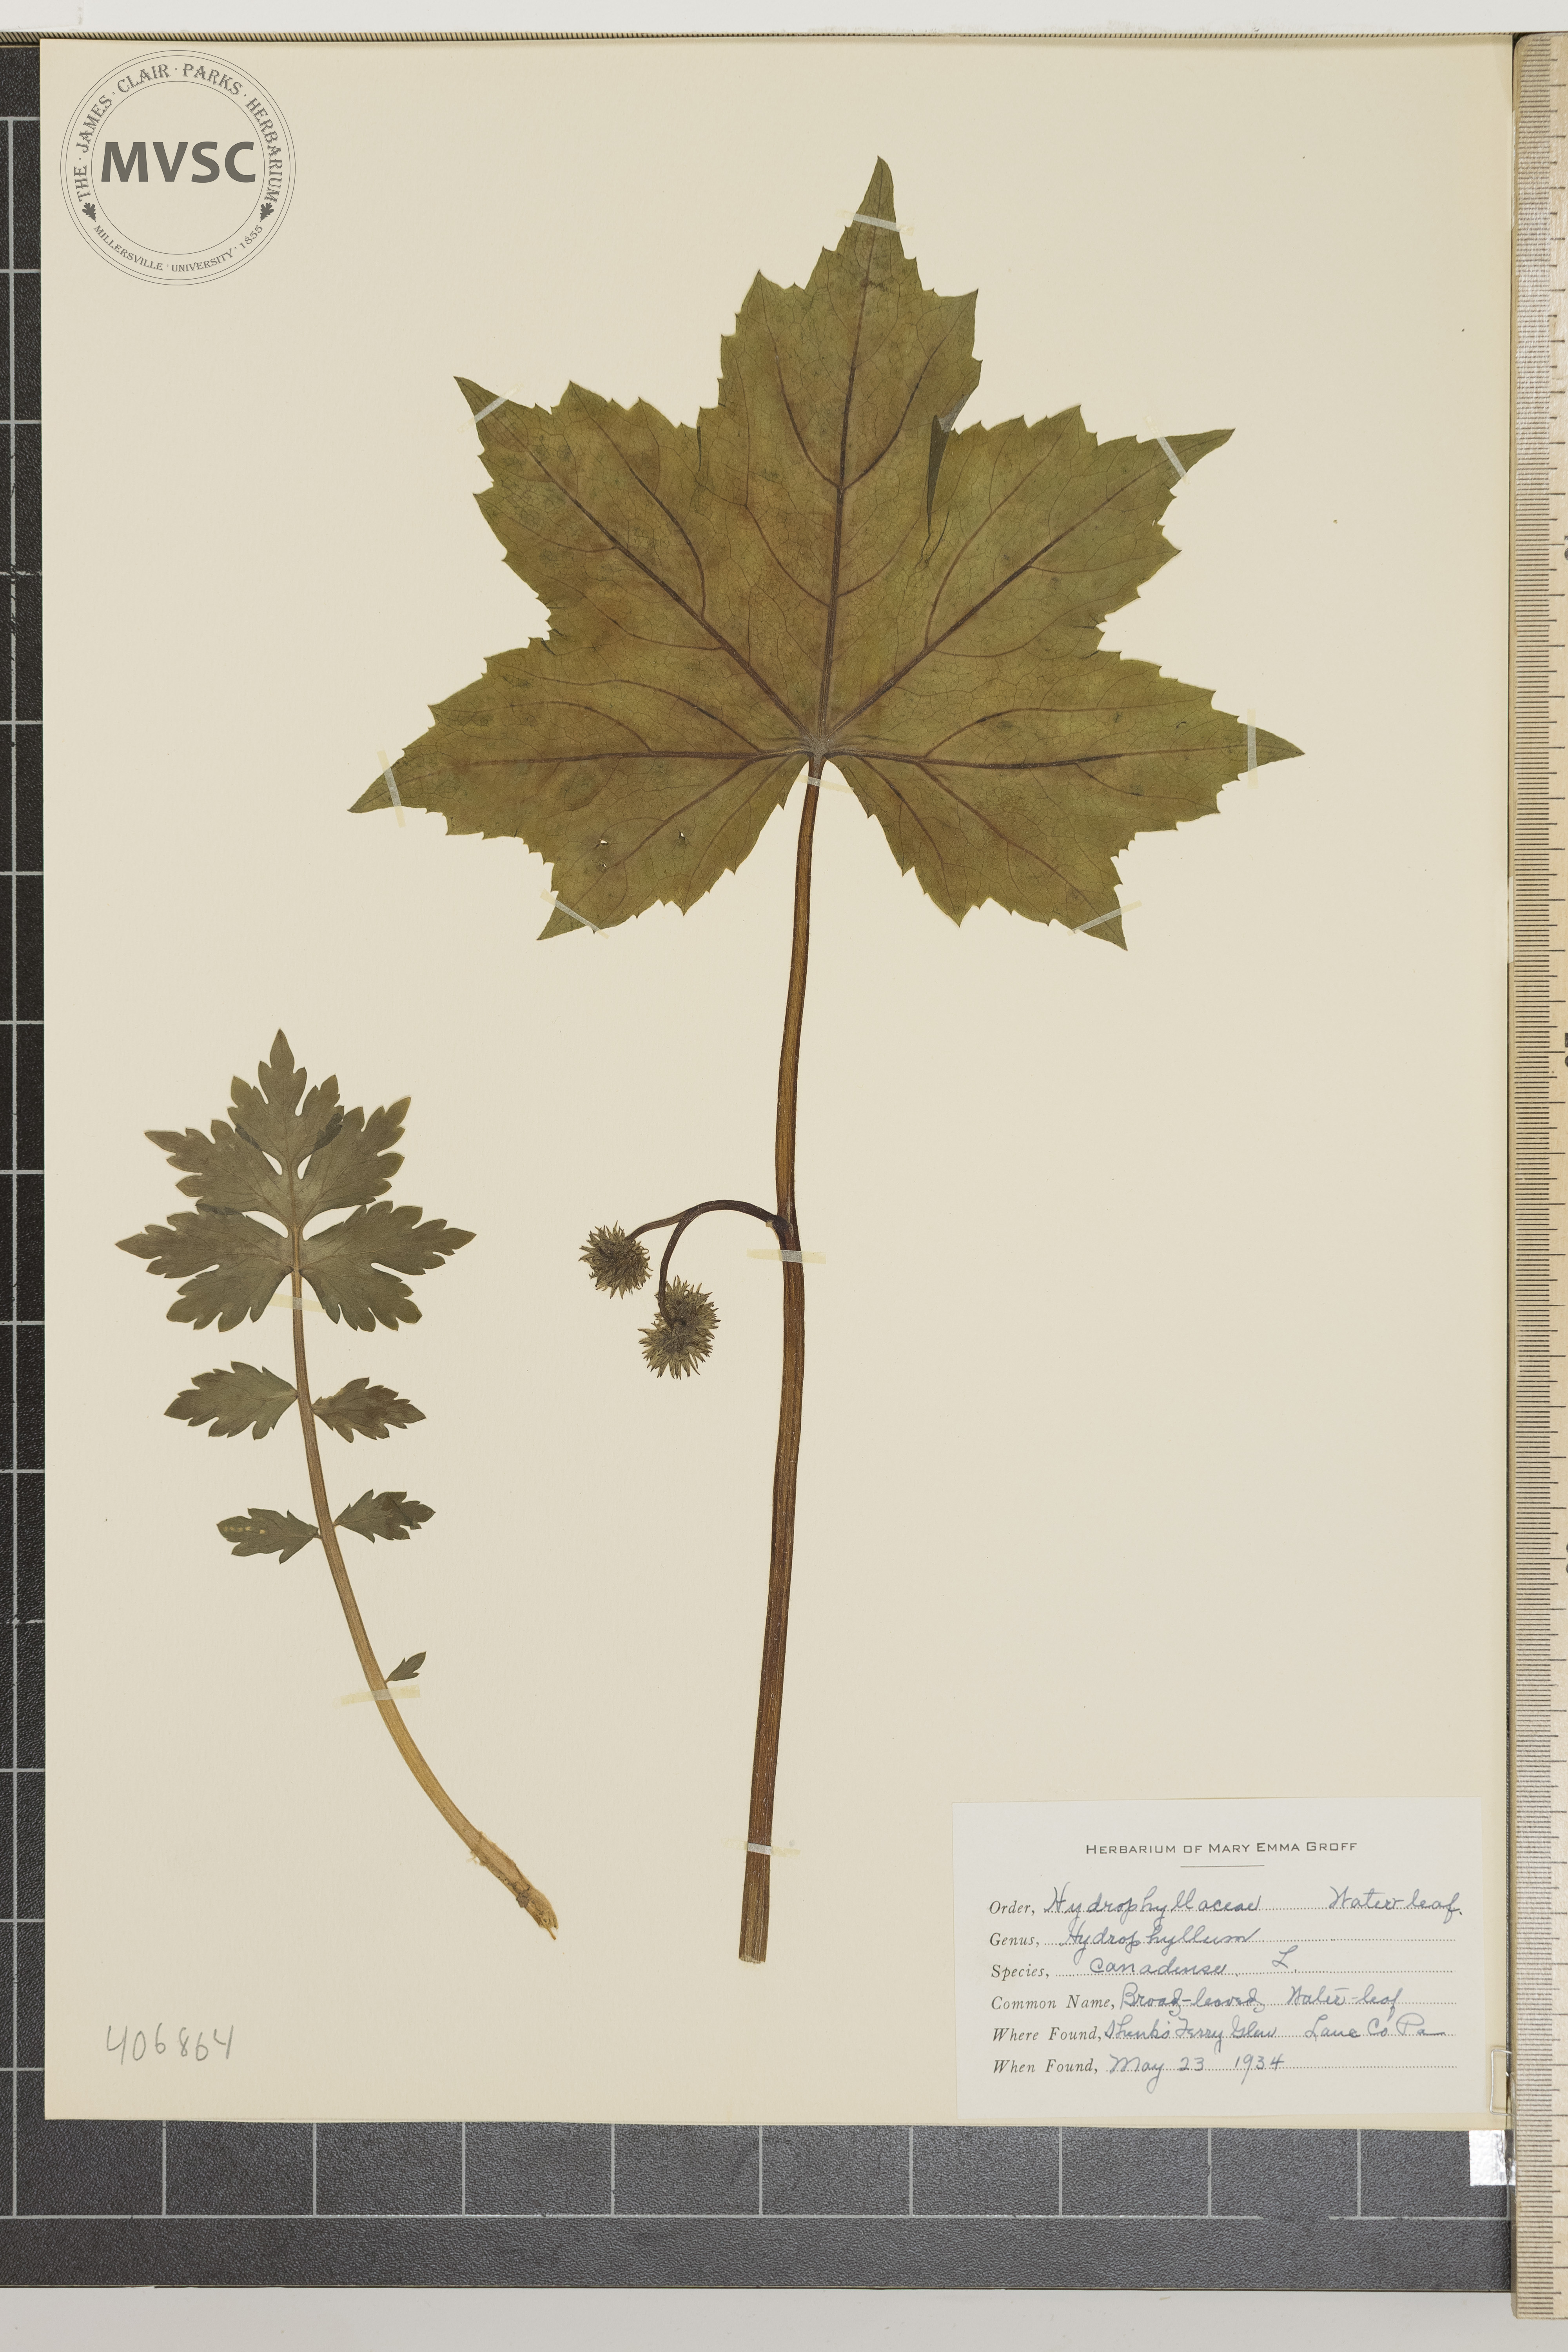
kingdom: Plantae
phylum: Tracheophyta
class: Magnoliopsida
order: Boraginales
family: Hydrophyllaceae
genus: Hydrophyllum
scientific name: Hydrophyllum canadense
